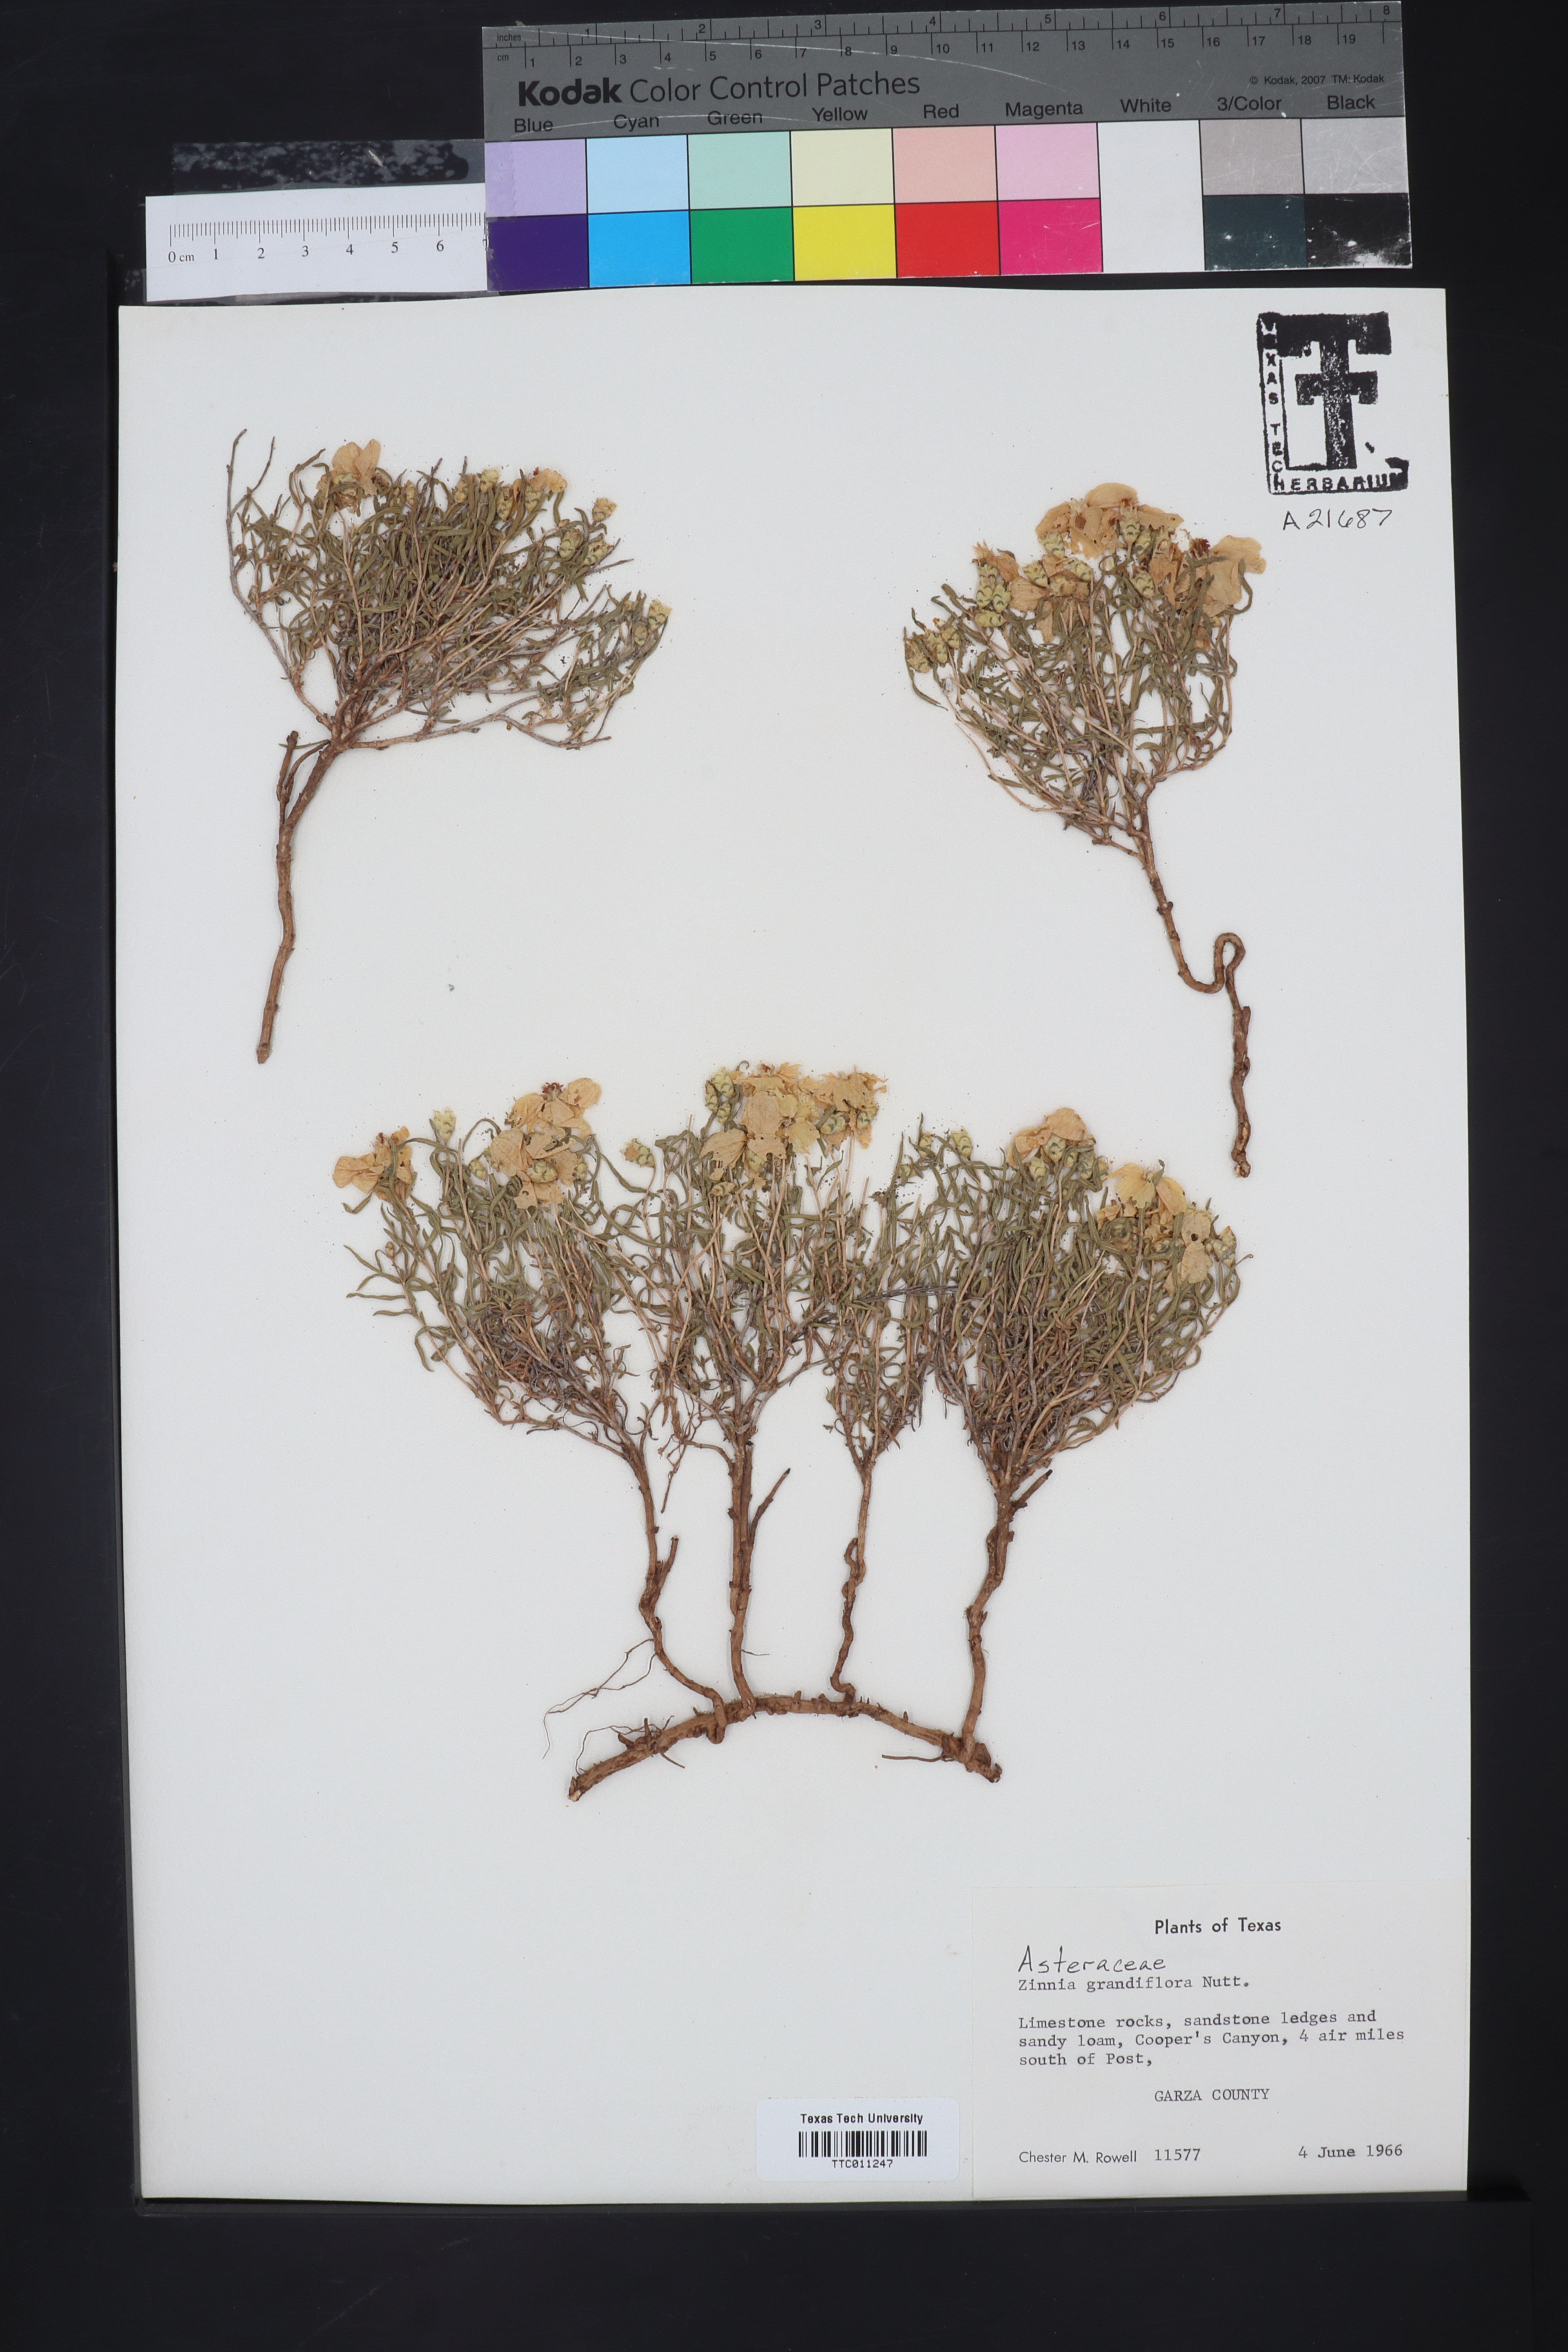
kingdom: Plantae
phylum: Tracheophyta
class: Magnoliopsida
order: Asterales
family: Asteraceae
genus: Zinnia
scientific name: Zinnia grandiflora
